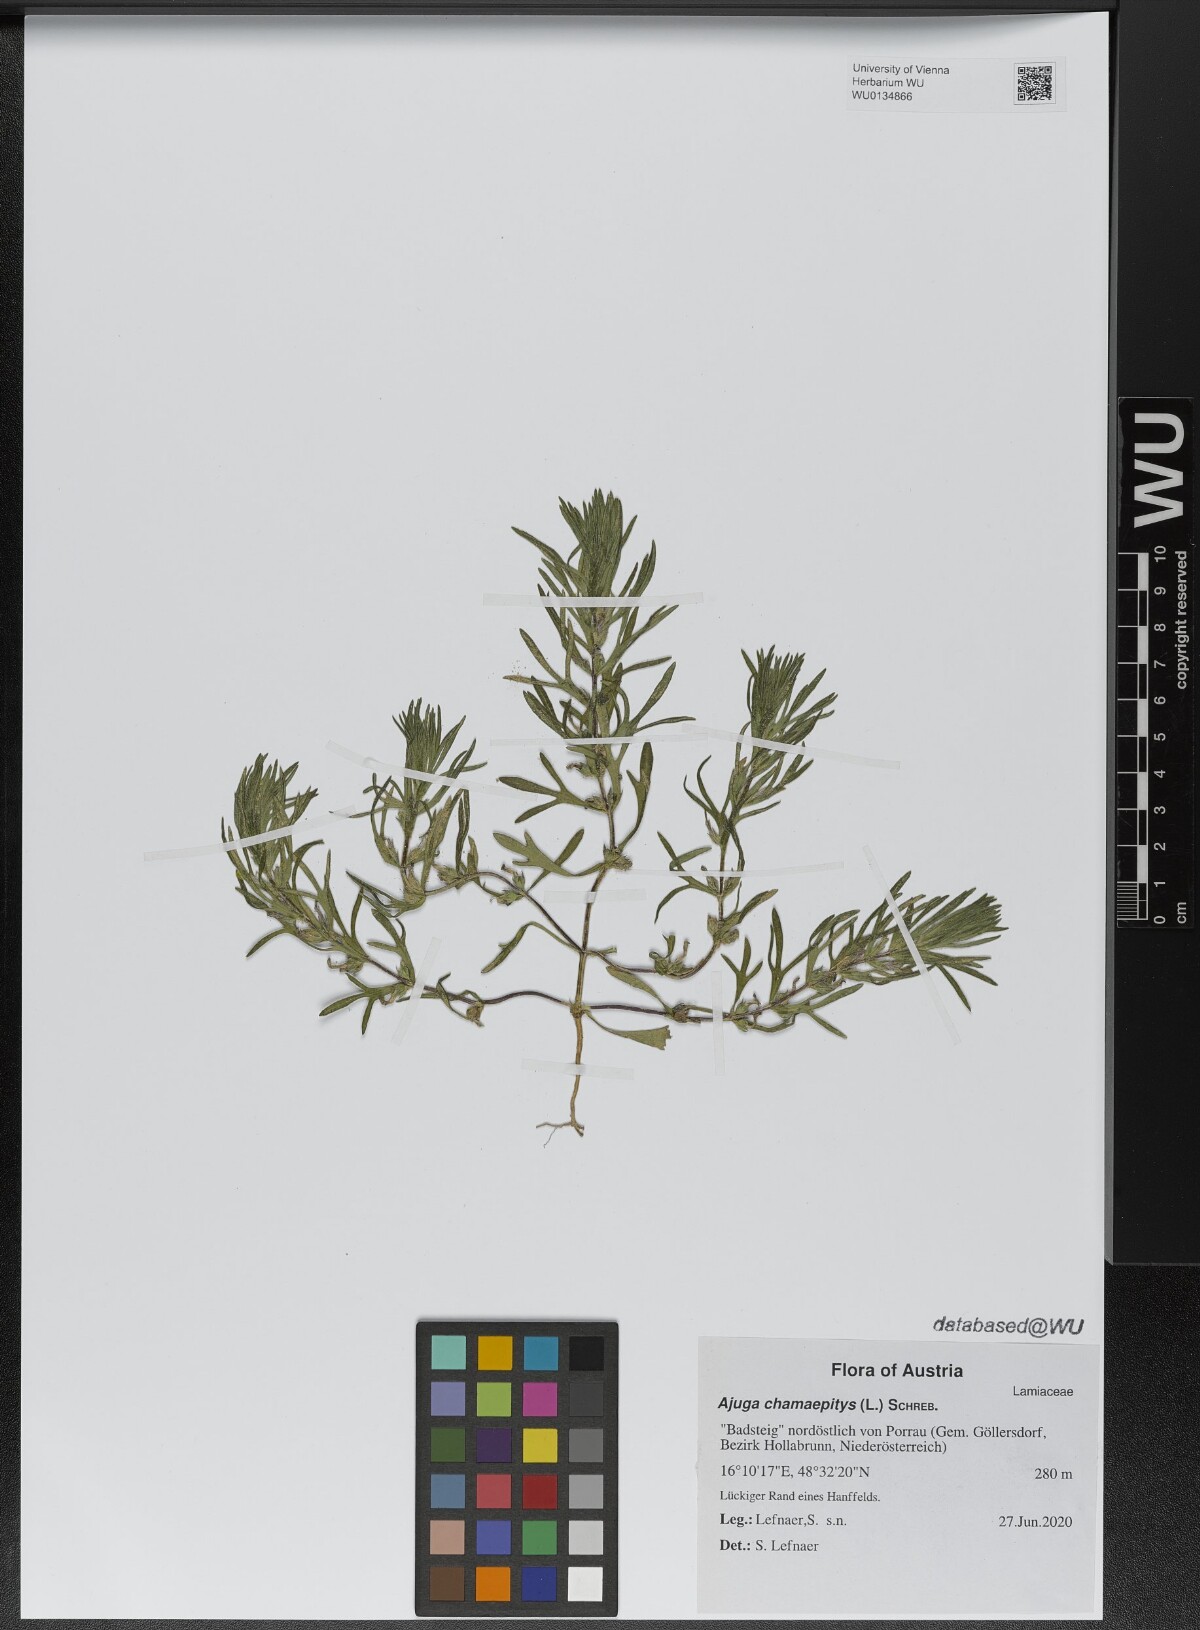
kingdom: Plantae
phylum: Tracheophyta
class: Magnoliopsida
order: Lamiales
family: Lamiaceae
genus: Ajuga
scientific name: Ajuga chamaepitys
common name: Ground-pine
